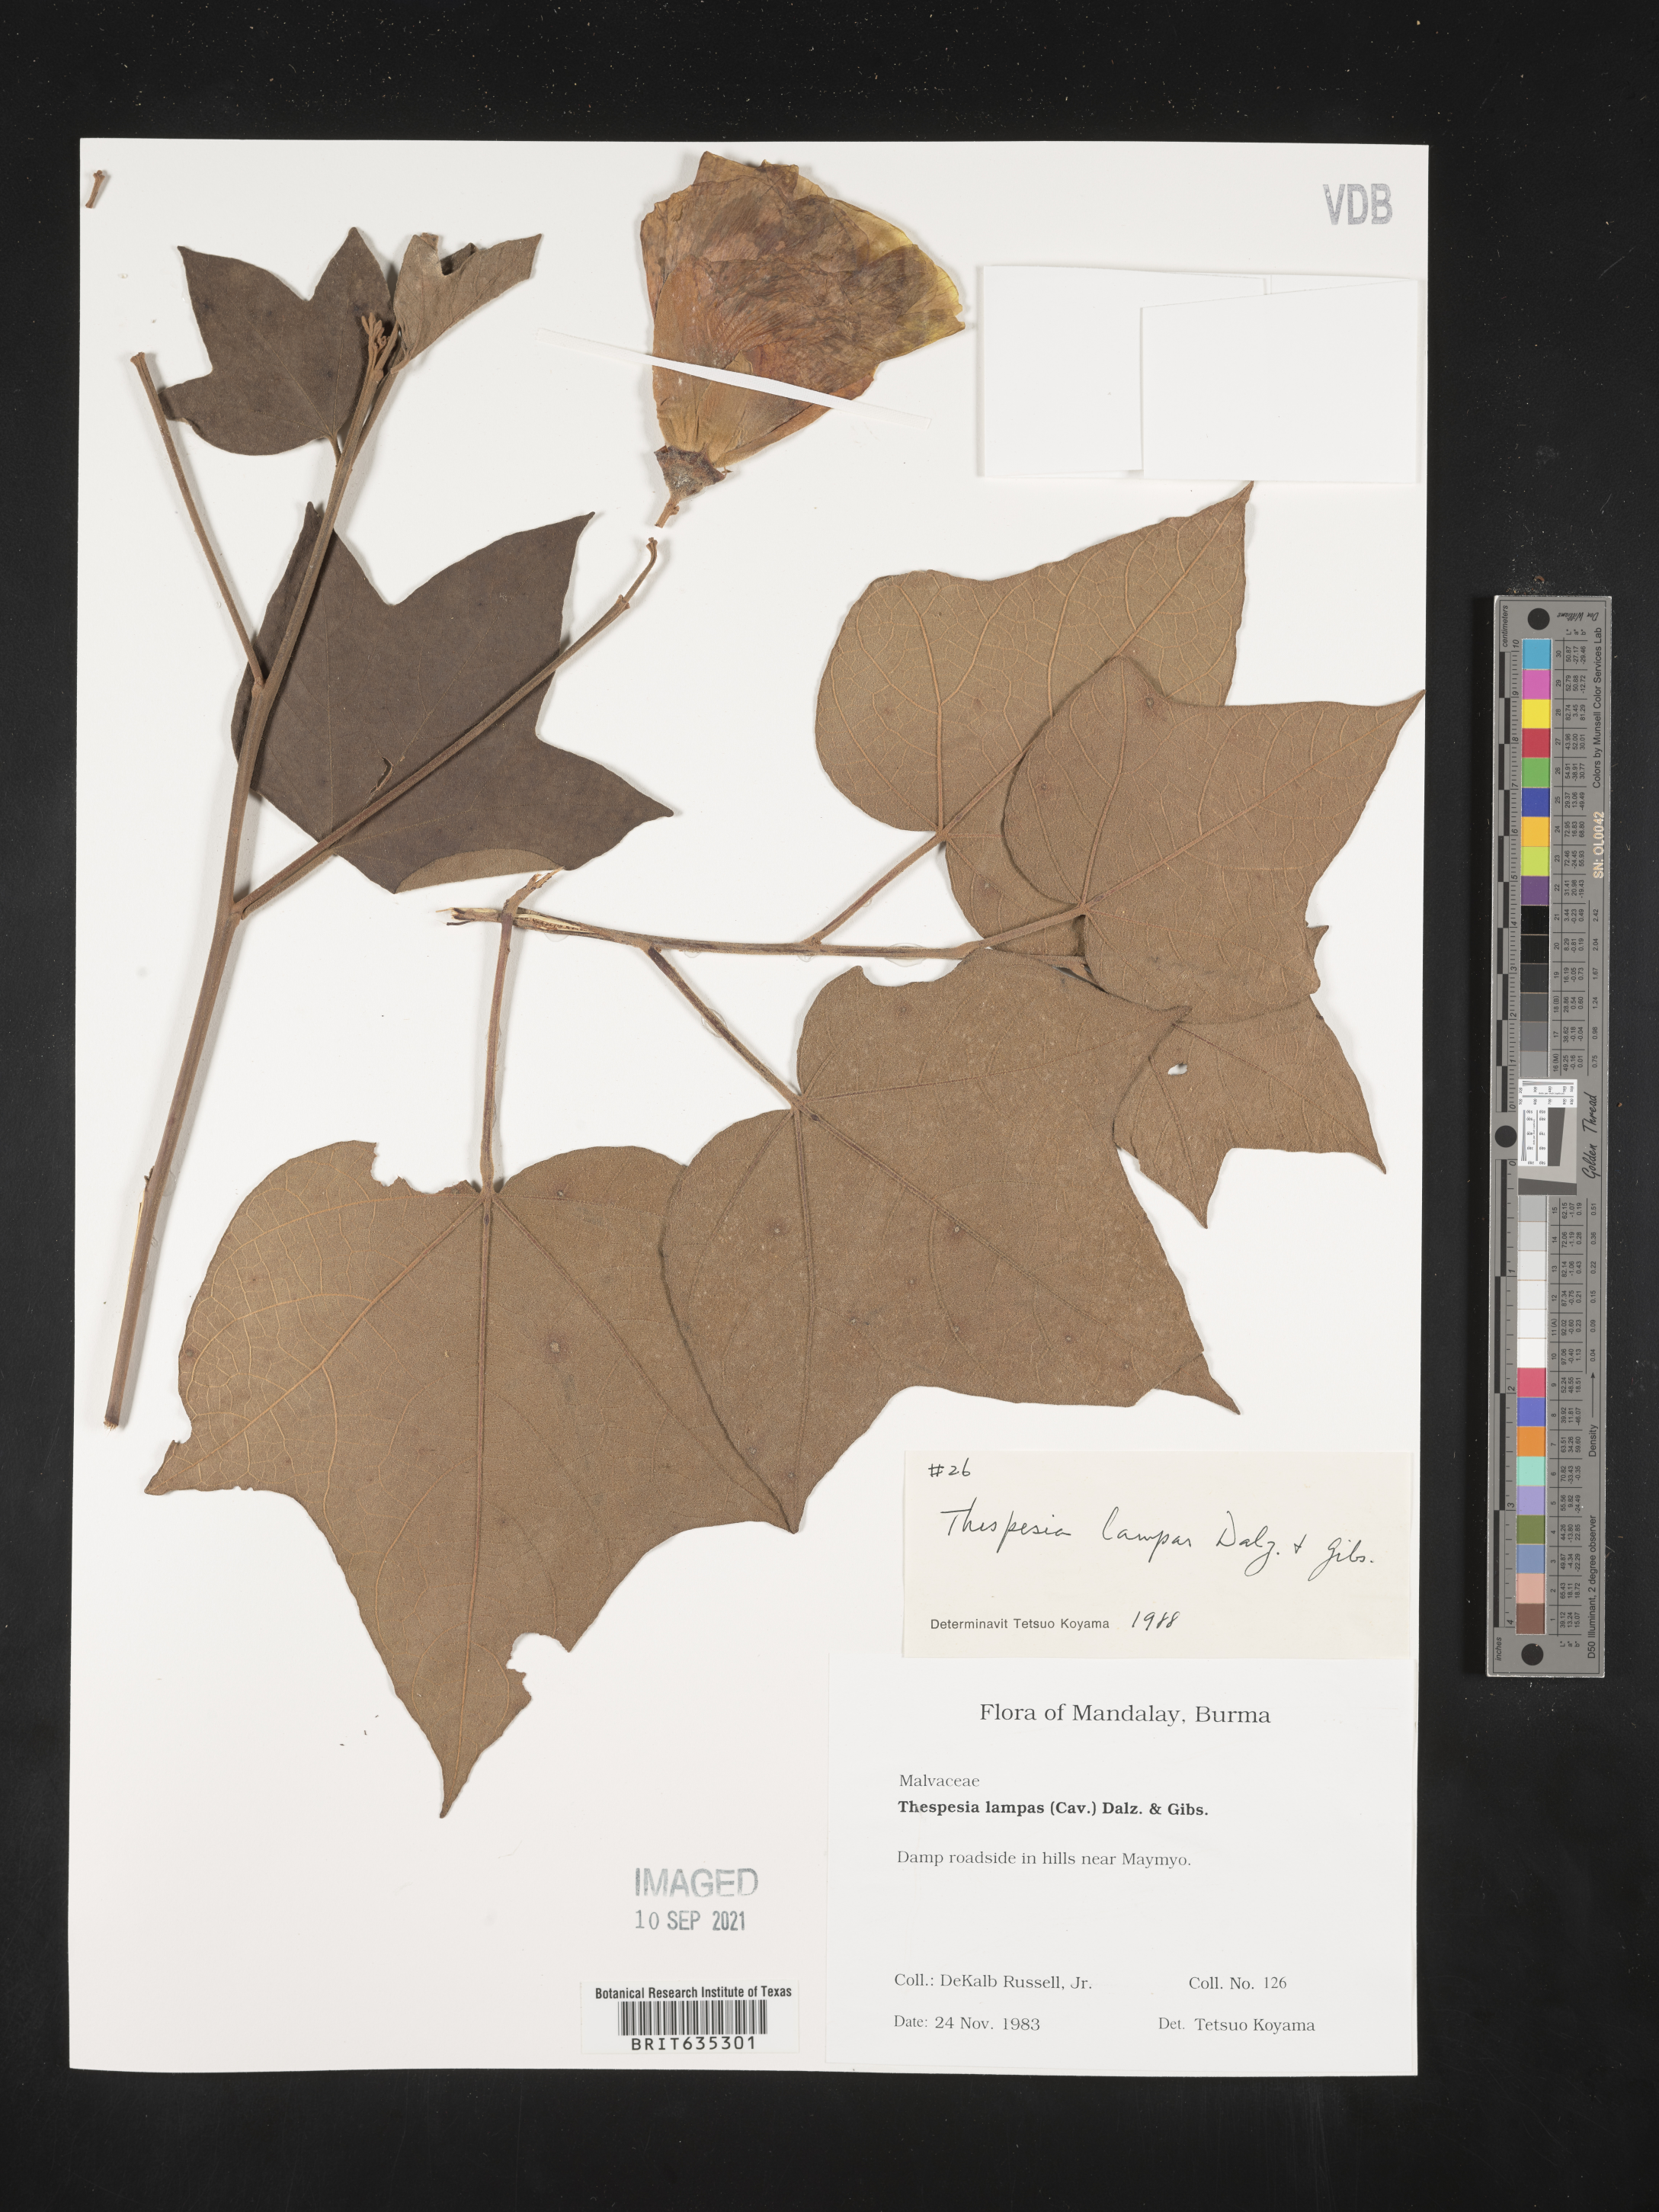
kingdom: Plantae
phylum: Tracheophyta
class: Magnoliopsida
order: Malvales
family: Malvaceae
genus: Thespesia
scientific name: Thespesia
